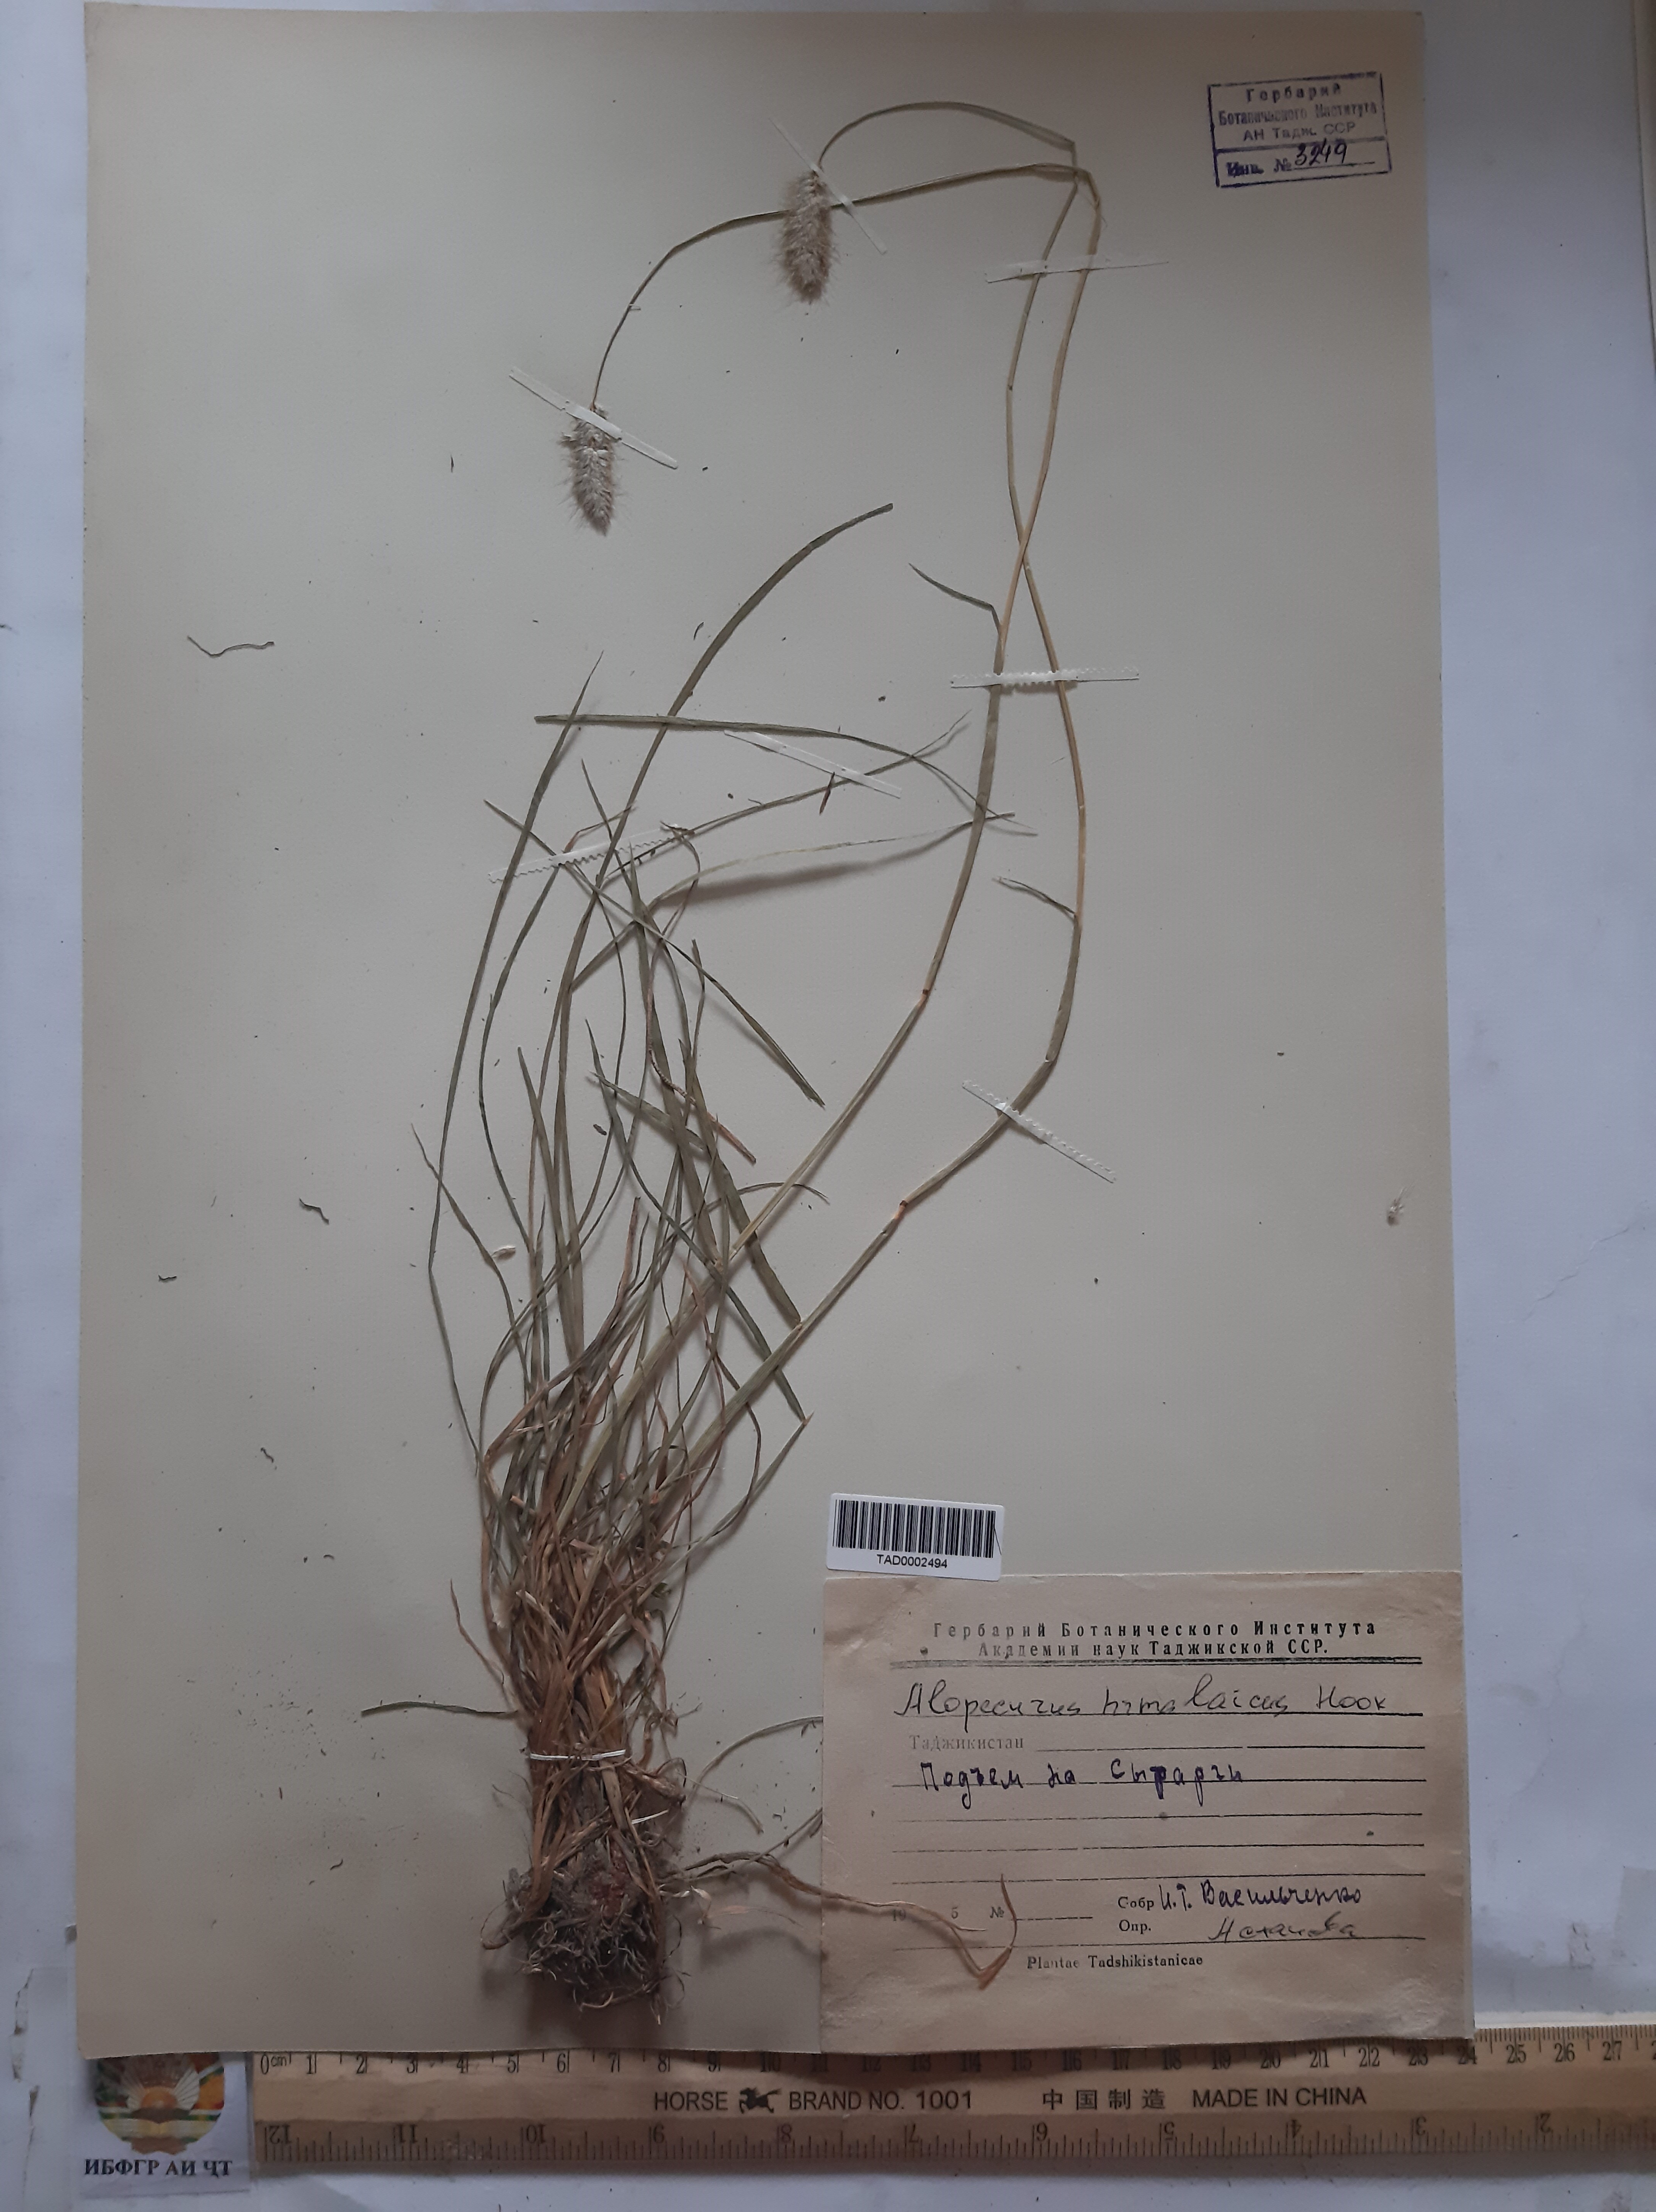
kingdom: Plantae
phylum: Tracheophyta
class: Liliopsida
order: Poales
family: Poaceae
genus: Alopecurus
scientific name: Alopecurus himalaicus
